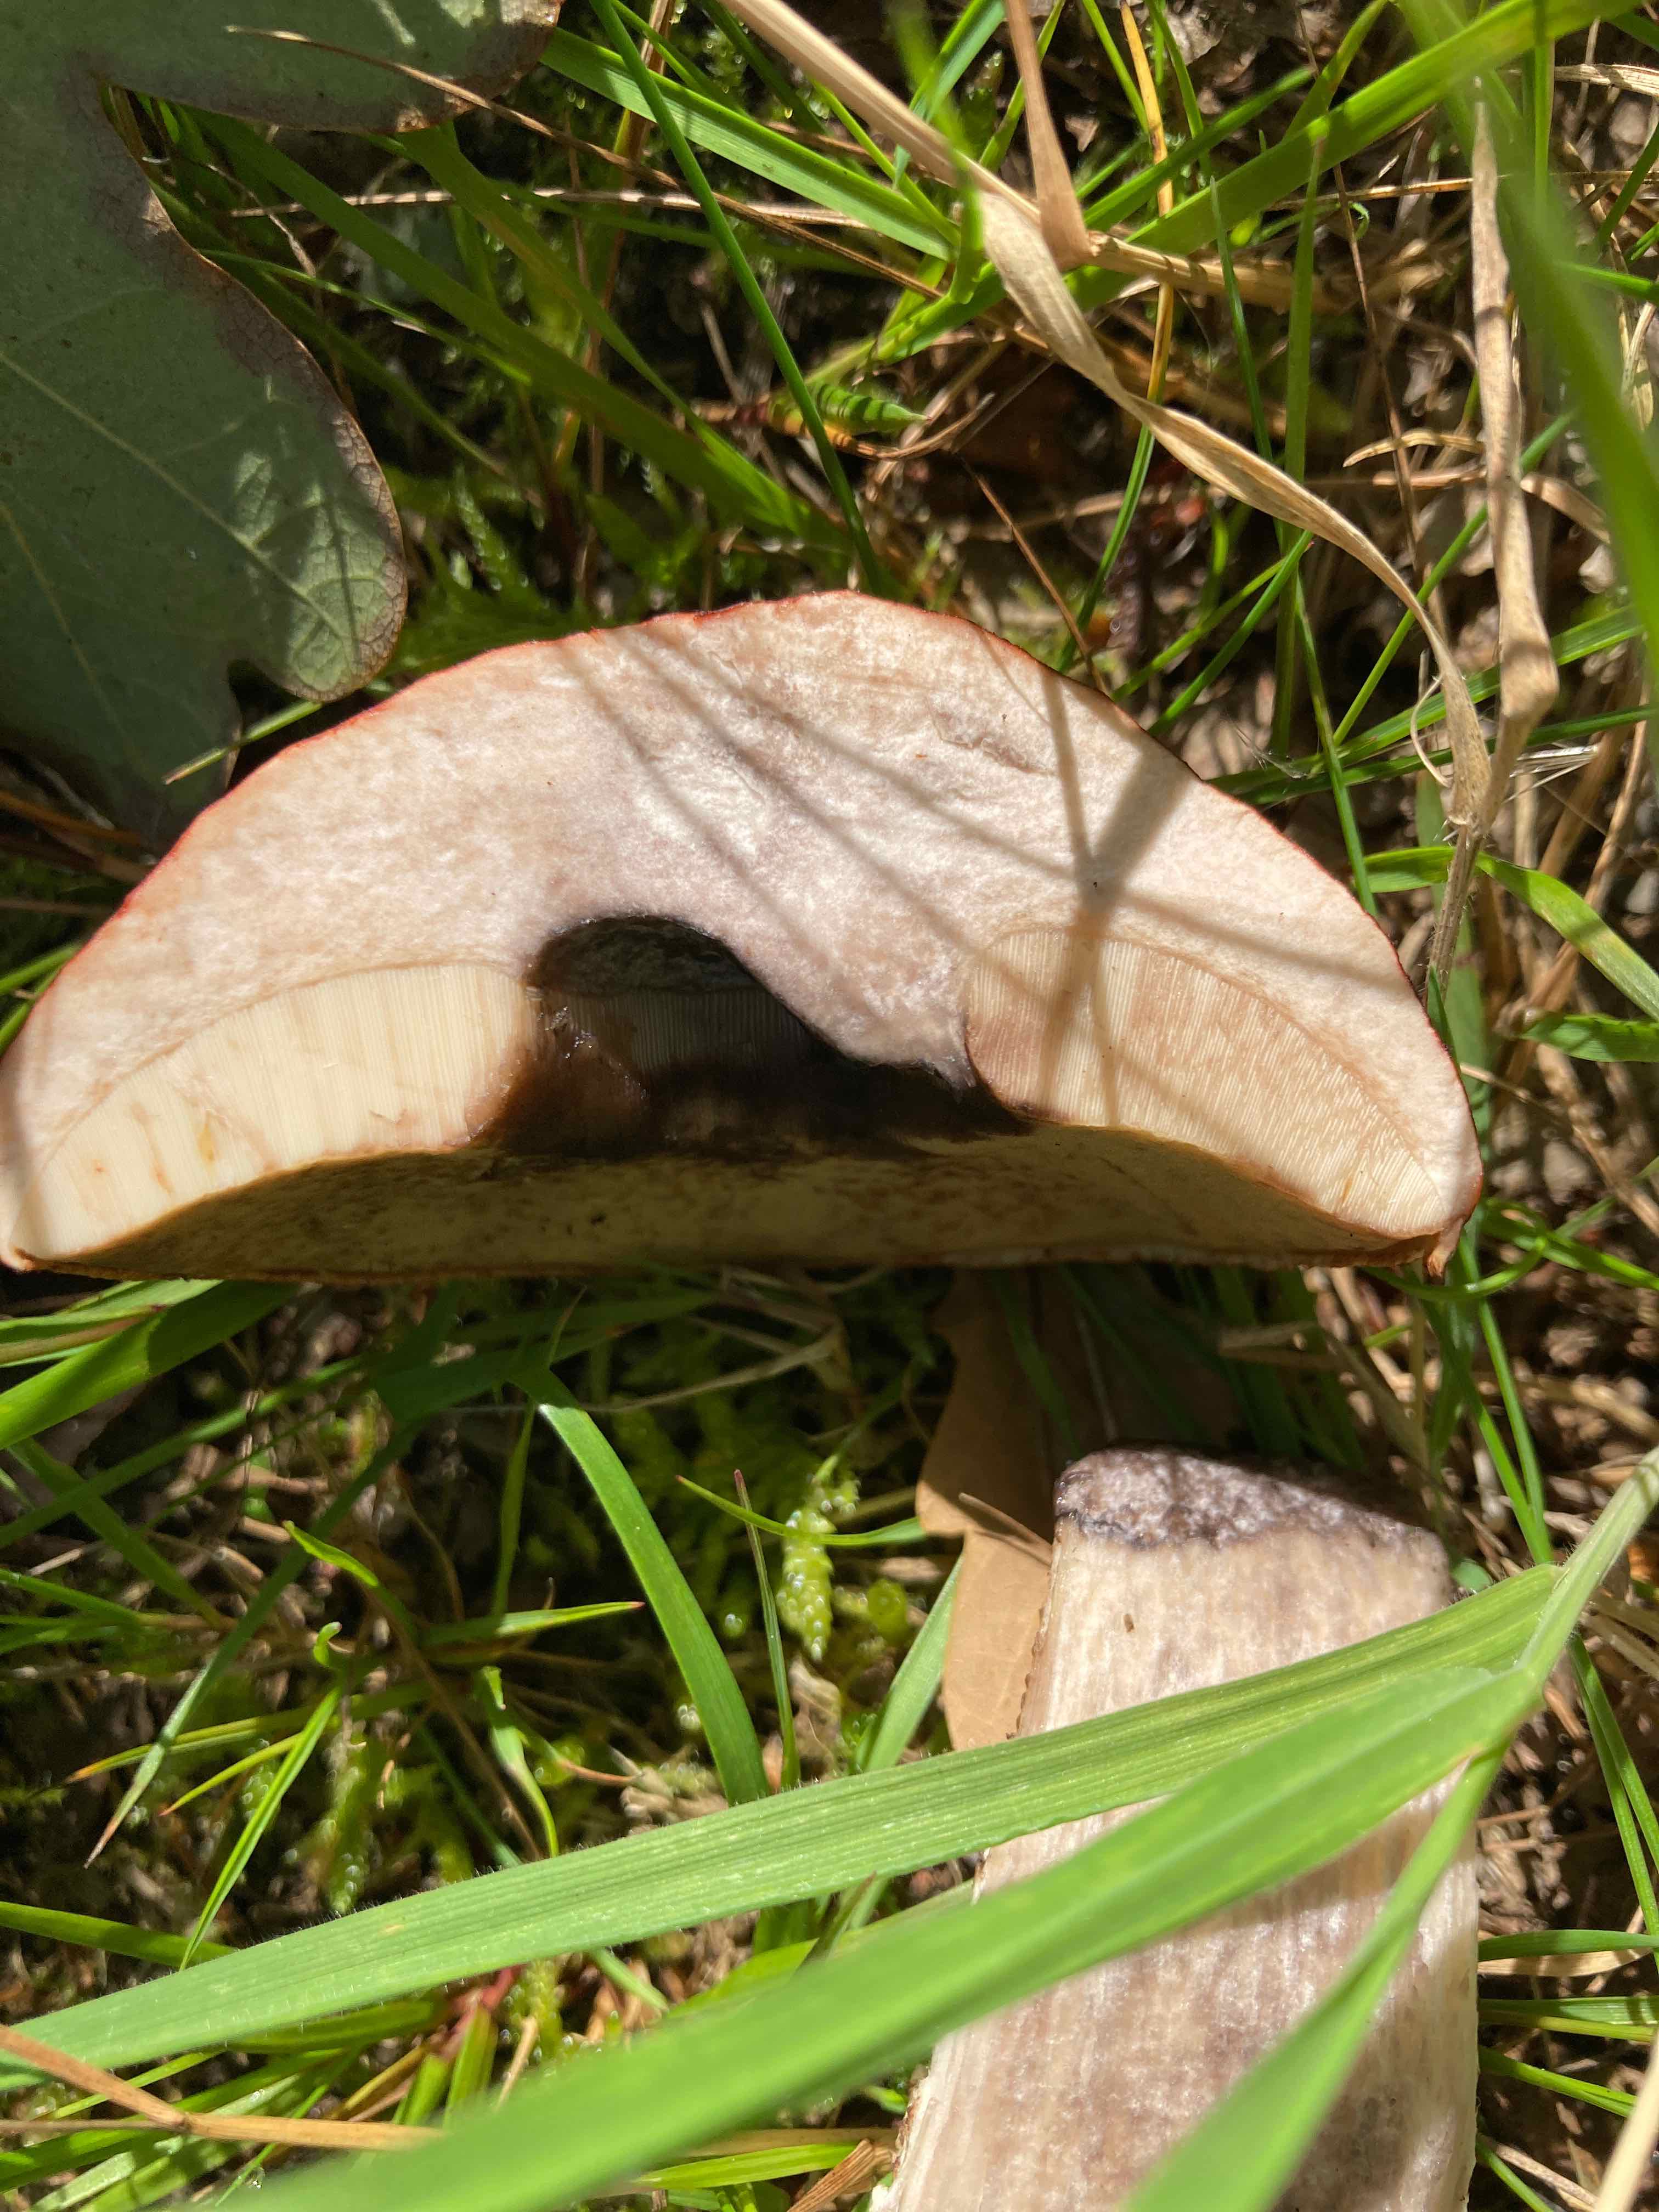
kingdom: Fungi
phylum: Basidiomycota
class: Agaricomycetes
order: Boletales
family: Boletaceae
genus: Leccinum
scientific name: Leccinum aurantiacum
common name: rustrød skælrørhat
